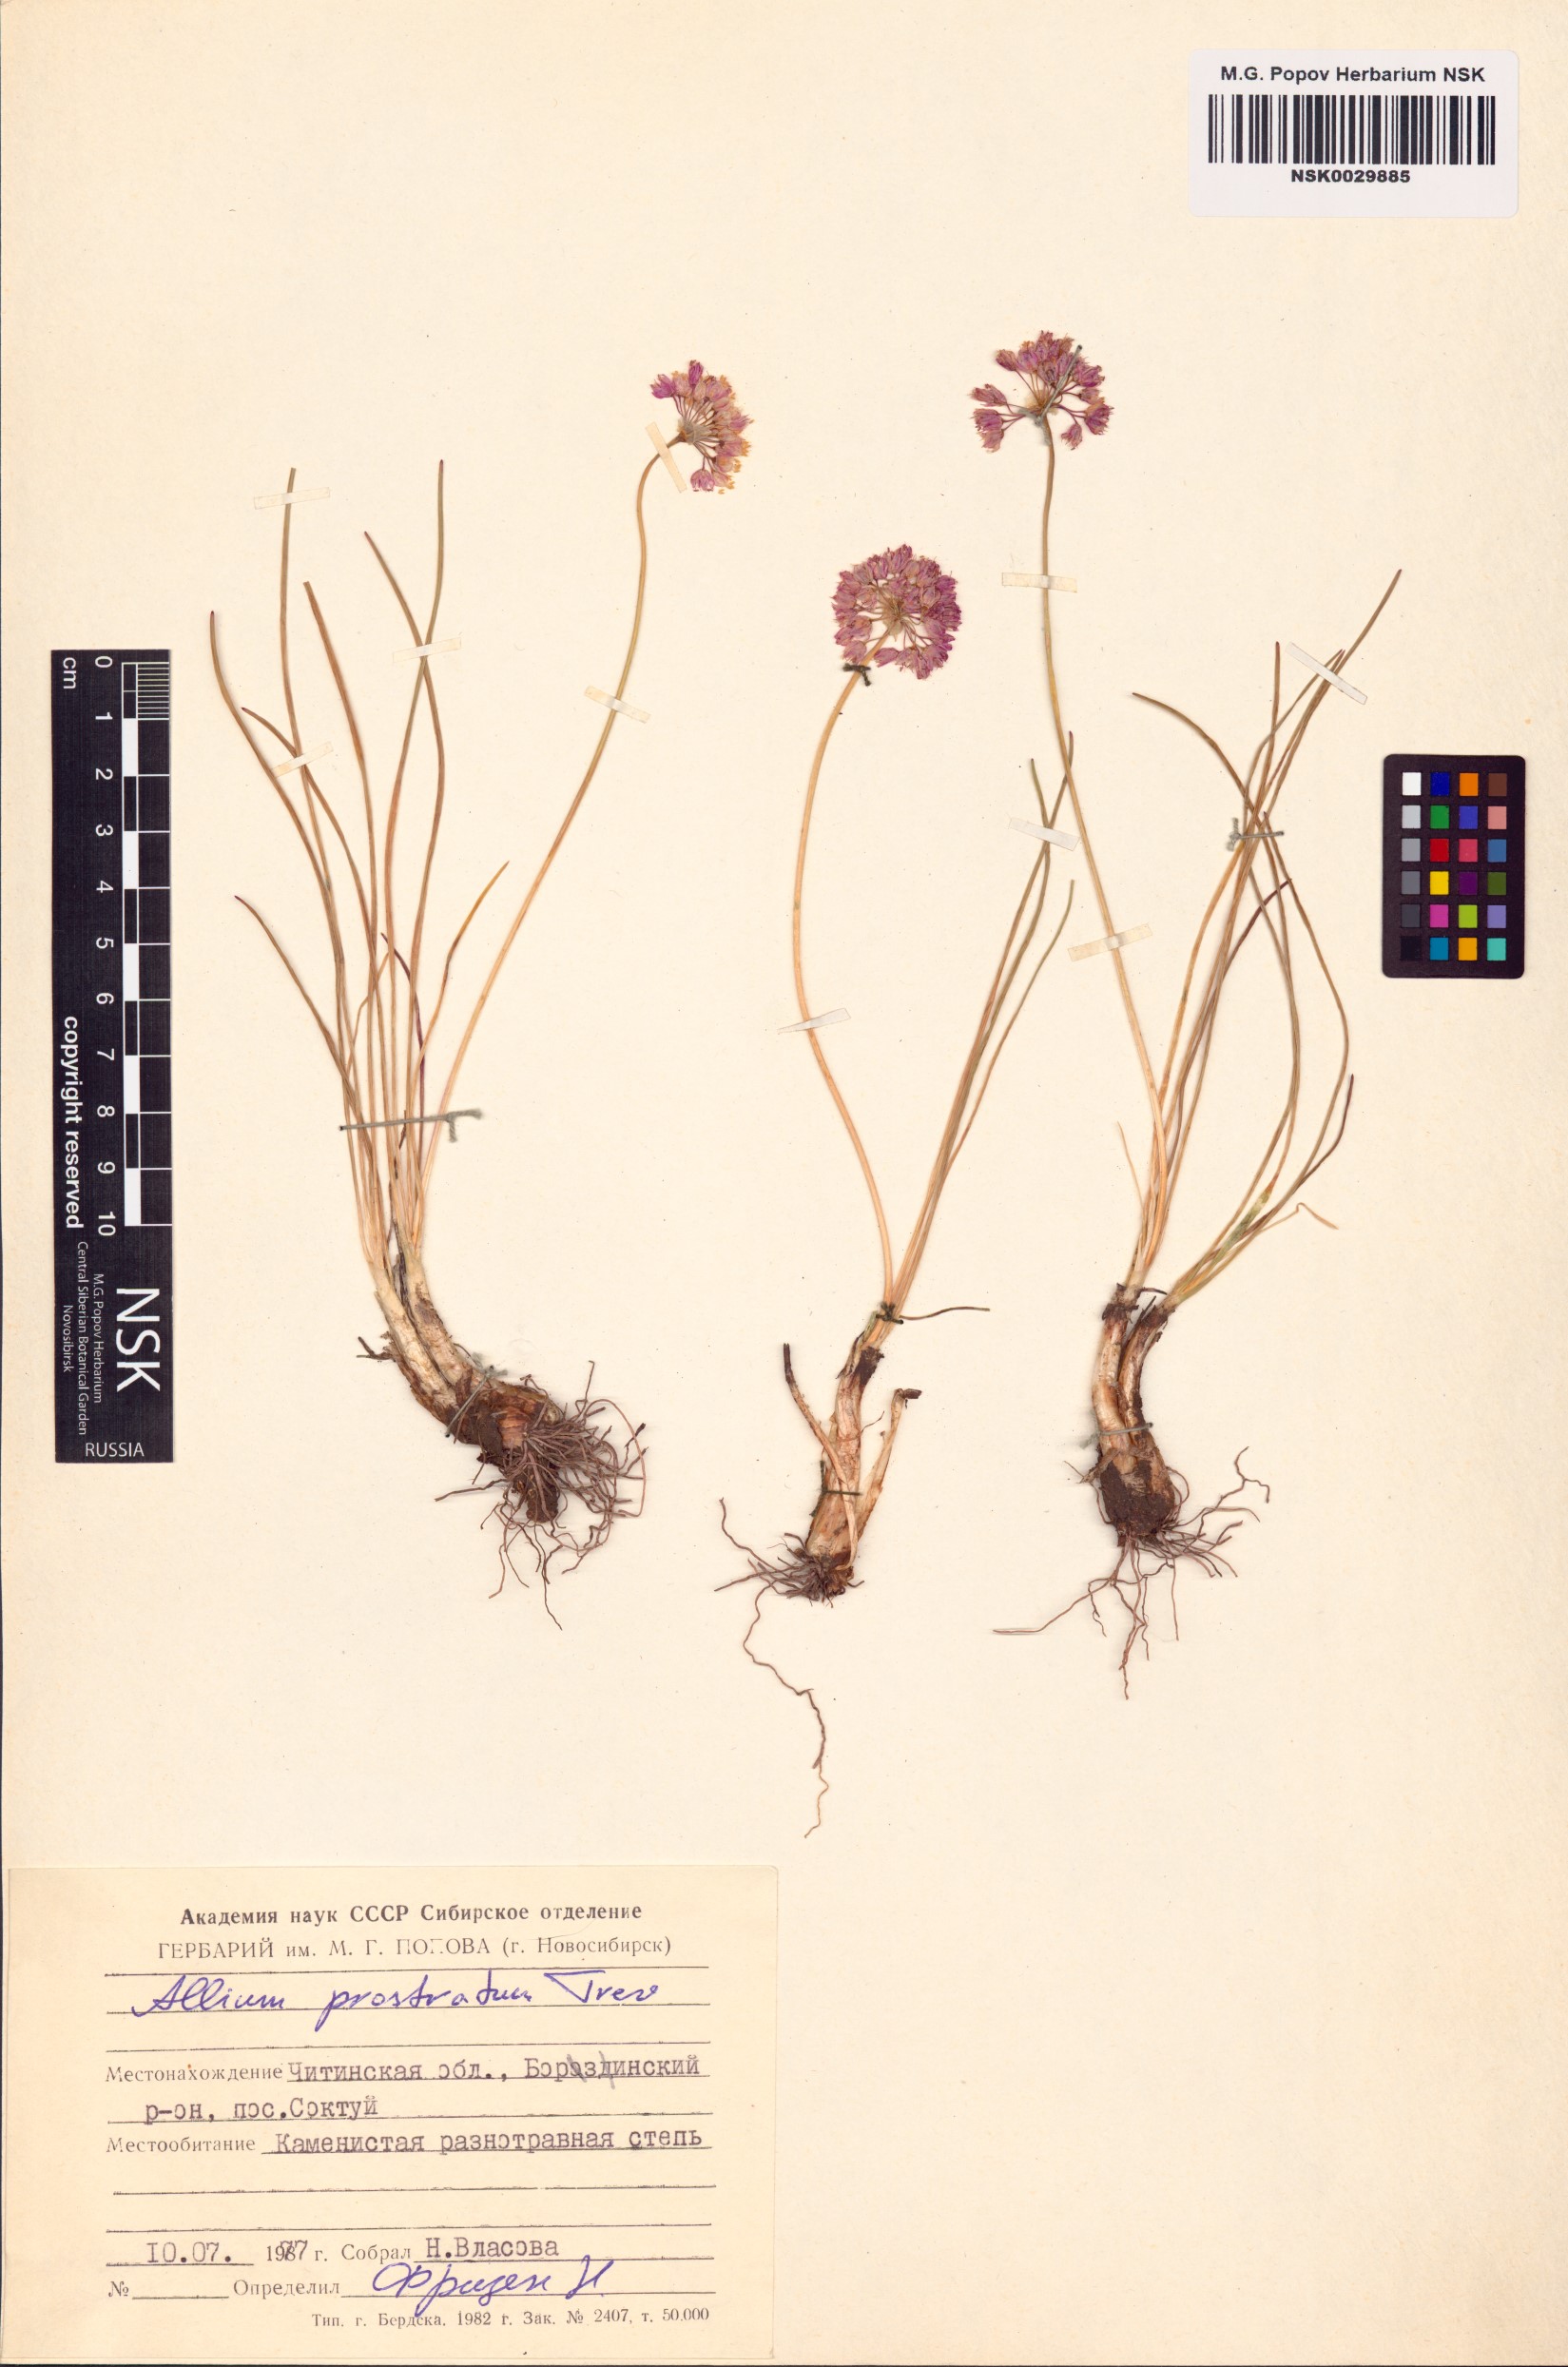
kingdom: Plantae
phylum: Tracheophyta
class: Liliopsida
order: Asparagales
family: Amaryllidaceae
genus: Allium
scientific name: Allium prostratum
